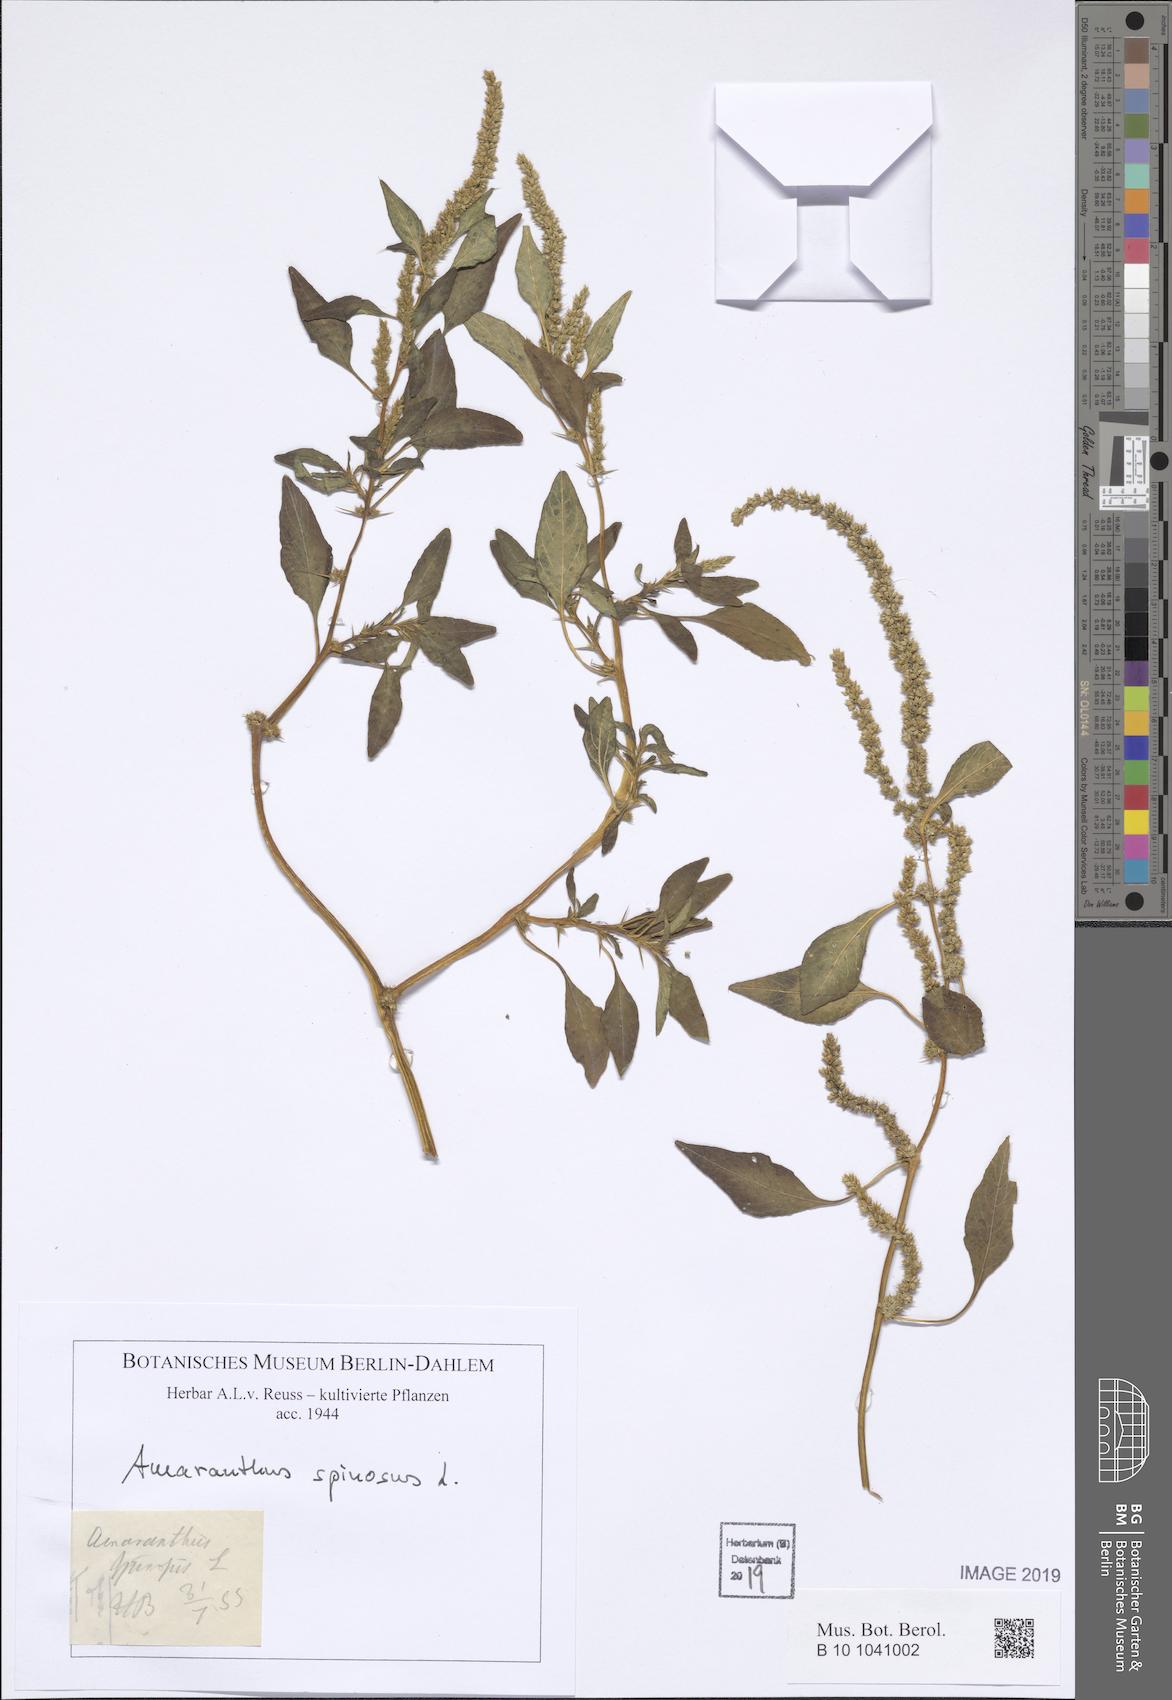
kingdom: Plantae
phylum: Tracheophyta
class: Magnoliopsida
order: Caryophyllales
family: Amaranthaceae
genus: Amaranthus
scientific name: Amaranthus spinosus
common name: Spiny amaranth
